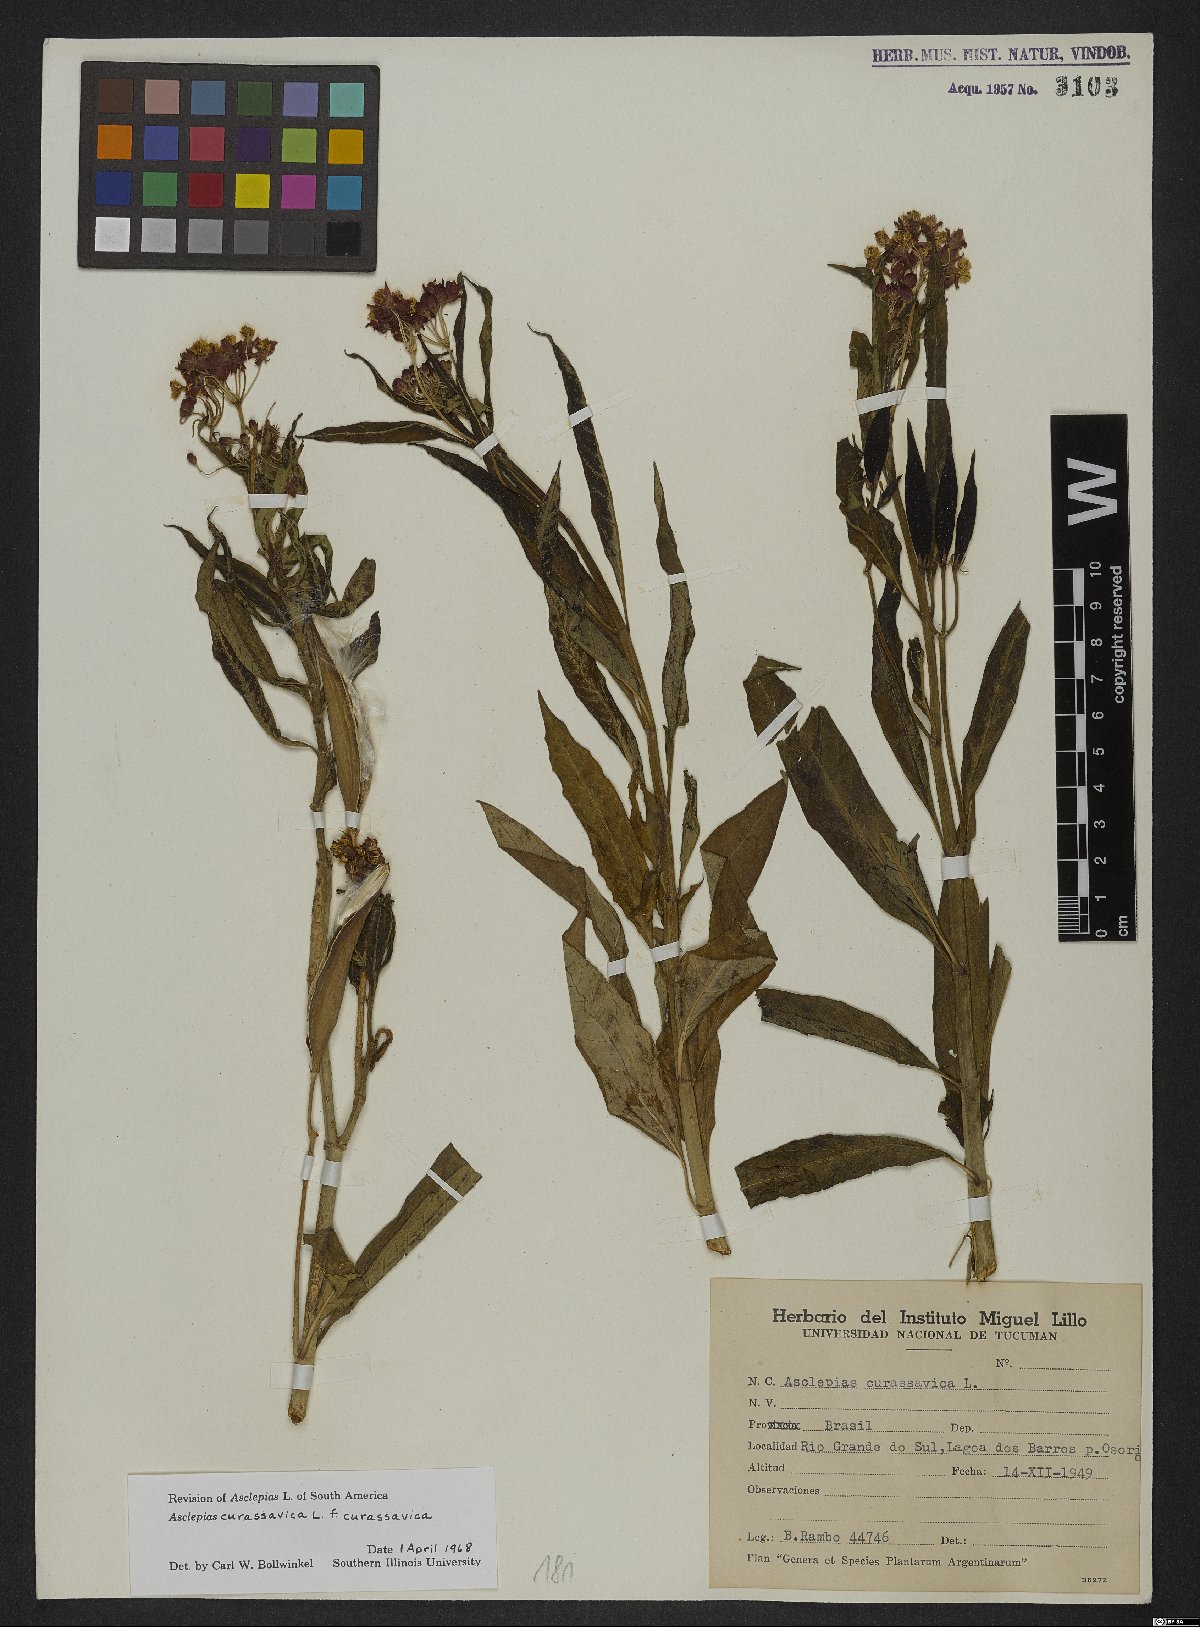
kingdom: Plantae
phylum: Tracheophyta
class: Magnoliopsida
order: Gentianales
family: Apocynaceae
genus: Asclepias
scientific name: Asclepias curassavica
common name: Bloodflower
